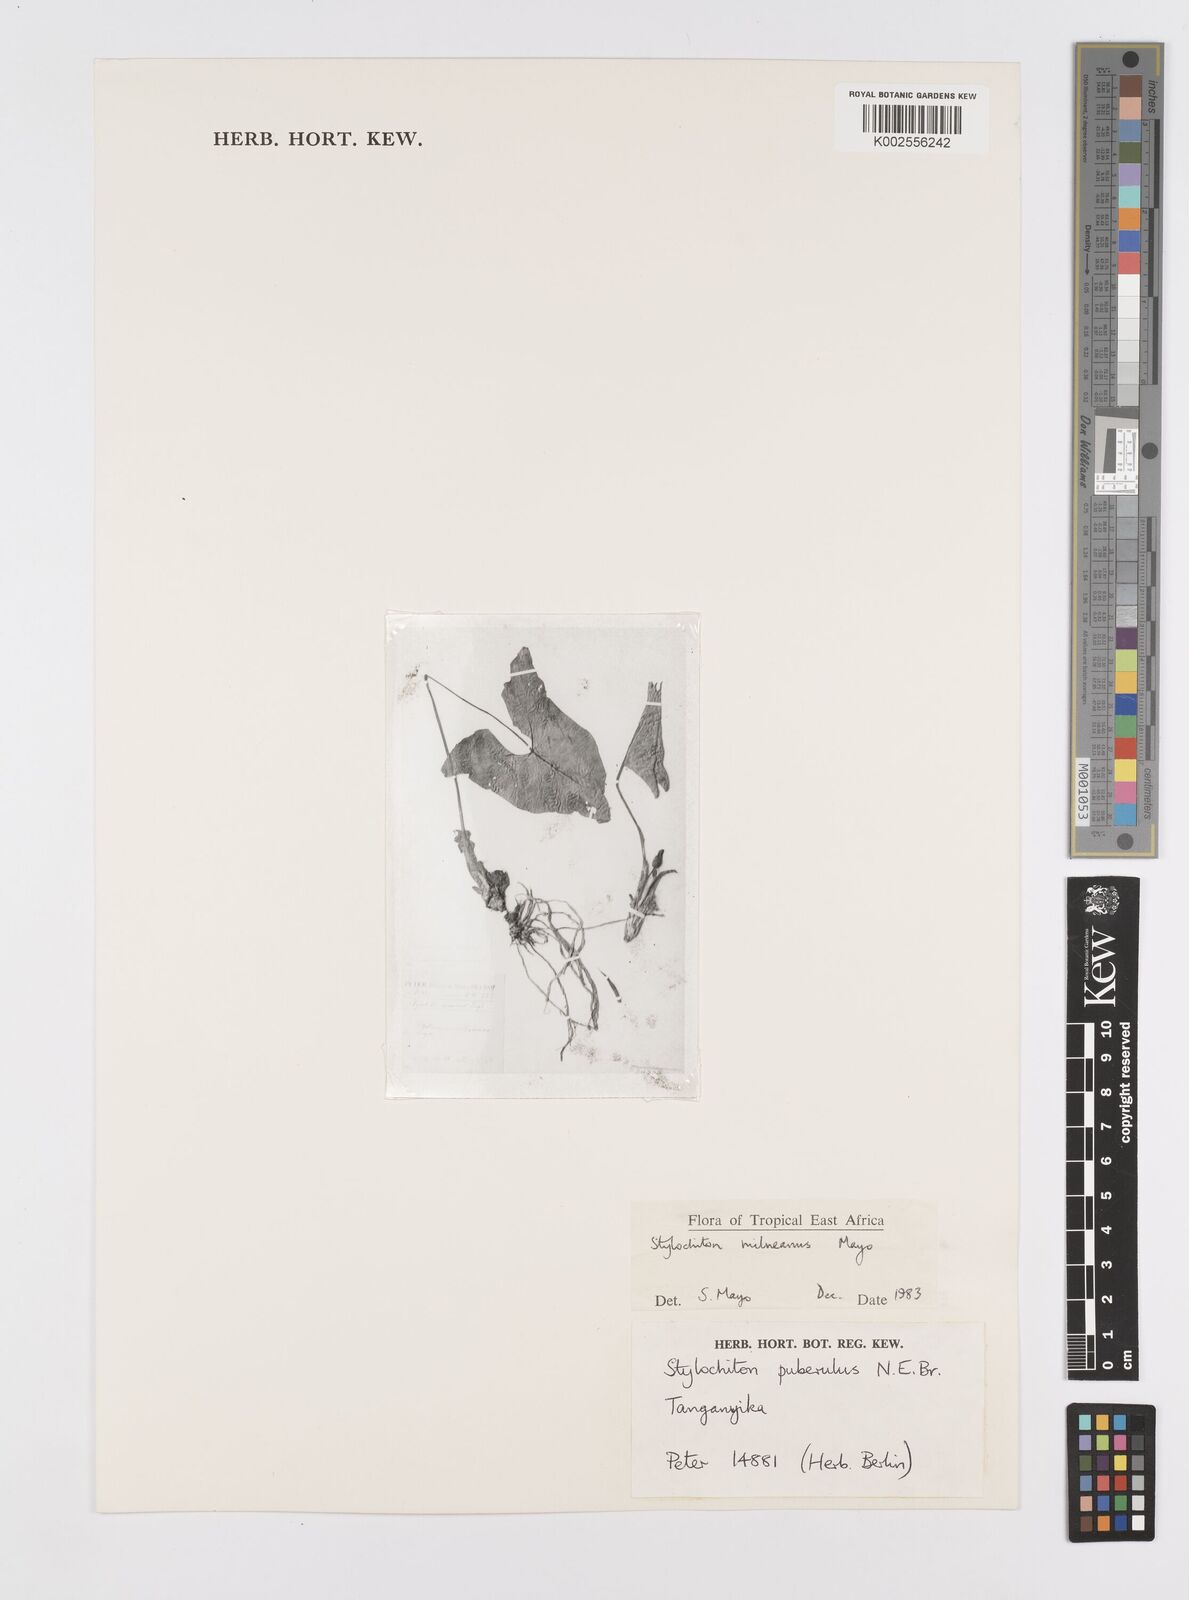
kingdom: Plantae
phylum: Tracheophyta
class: Liliopsida
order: Alismatales
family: Araceae
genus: Stylochaeton
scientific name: Stylochaeton milneanum
